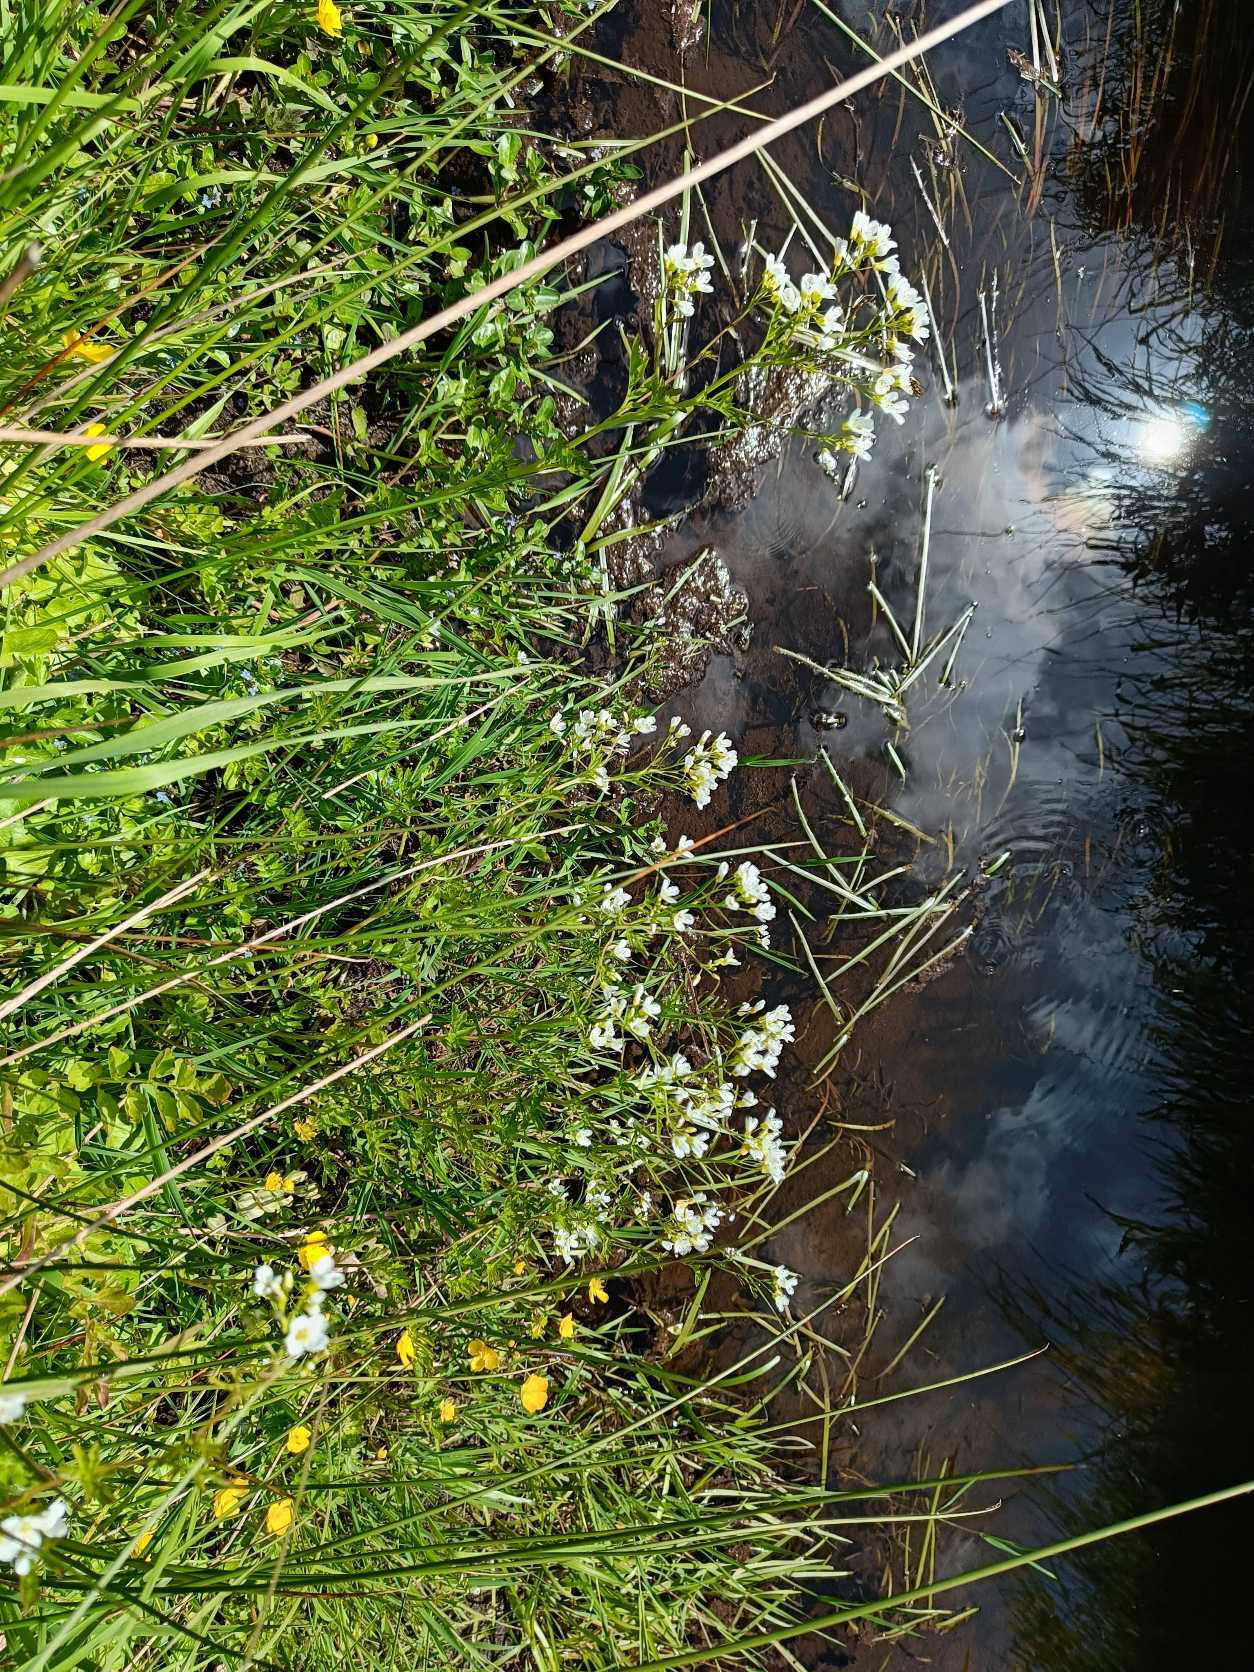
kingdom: Plantae
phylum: Tracheophyta
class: Magnoliopsida
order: Brassicales
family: Brassicaceae
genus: Cardamine
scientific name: Cardamine amara
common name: Vandkarse
